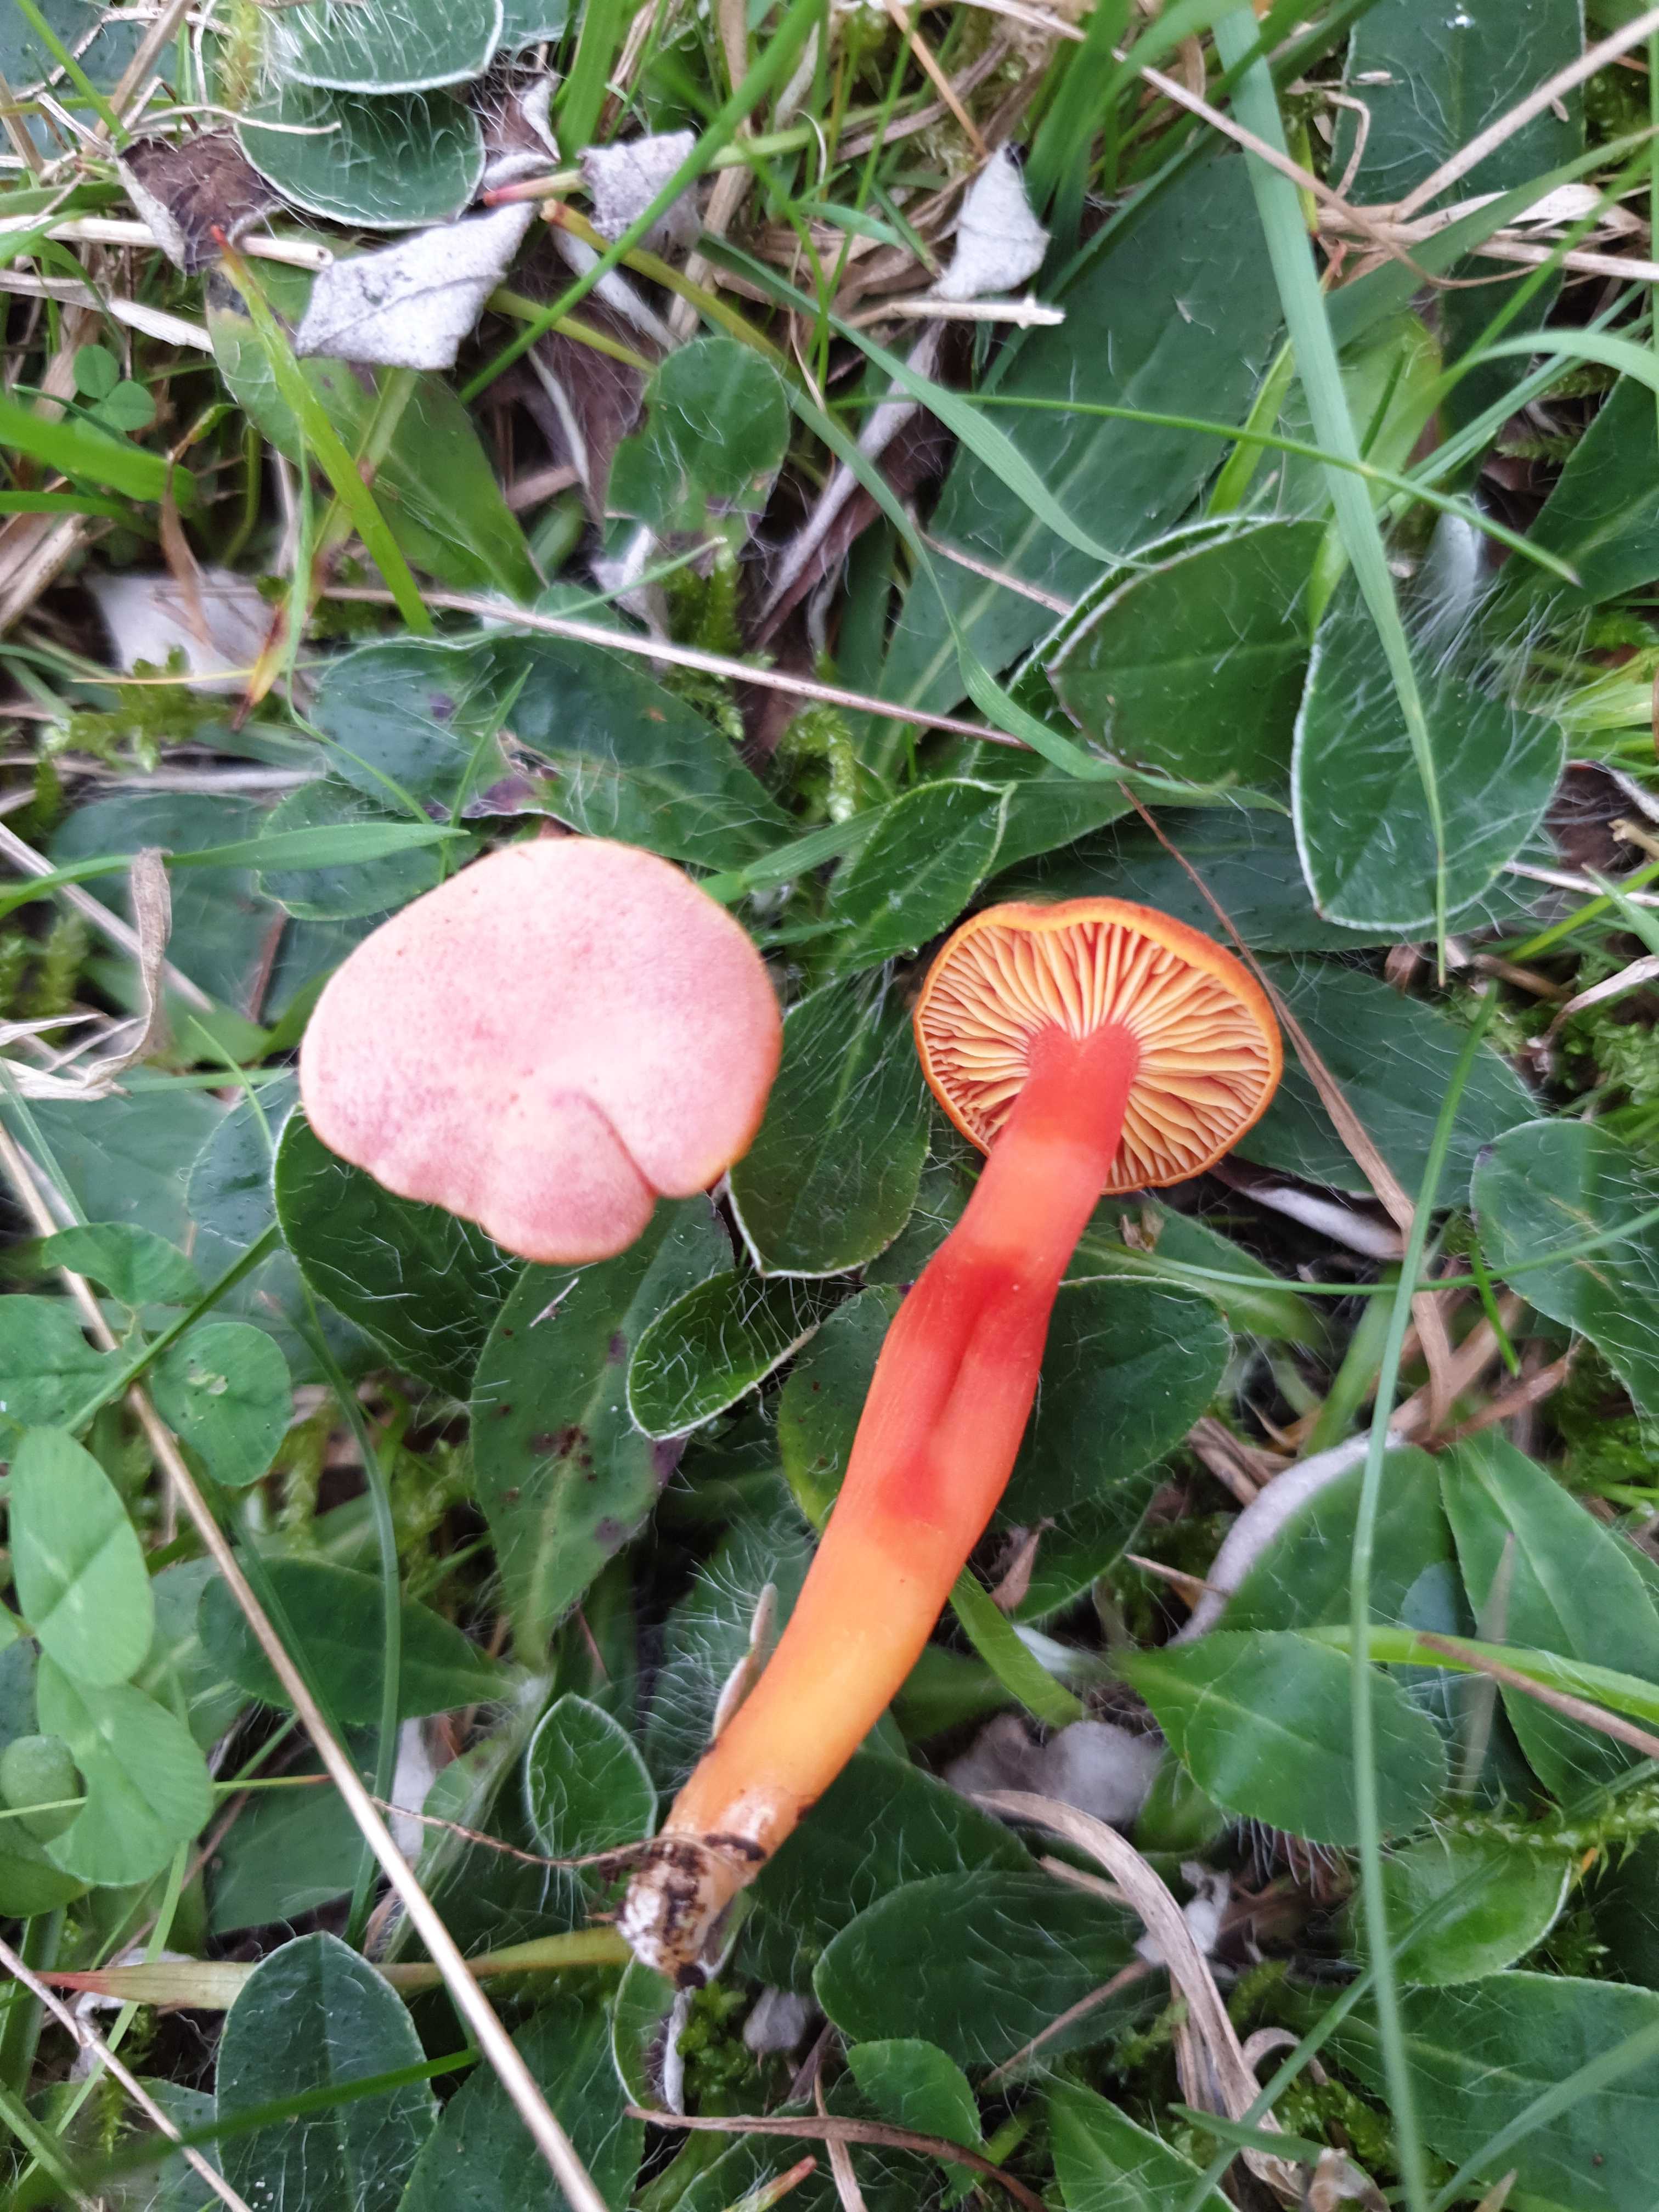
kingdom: Fungi
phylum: Basidiomycota
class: Agaricomycetes
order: Agaricales
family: Hygrophoraceae
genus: Hygrocybe
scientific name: Hygrocybe miniata
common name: mønje-vokshat
